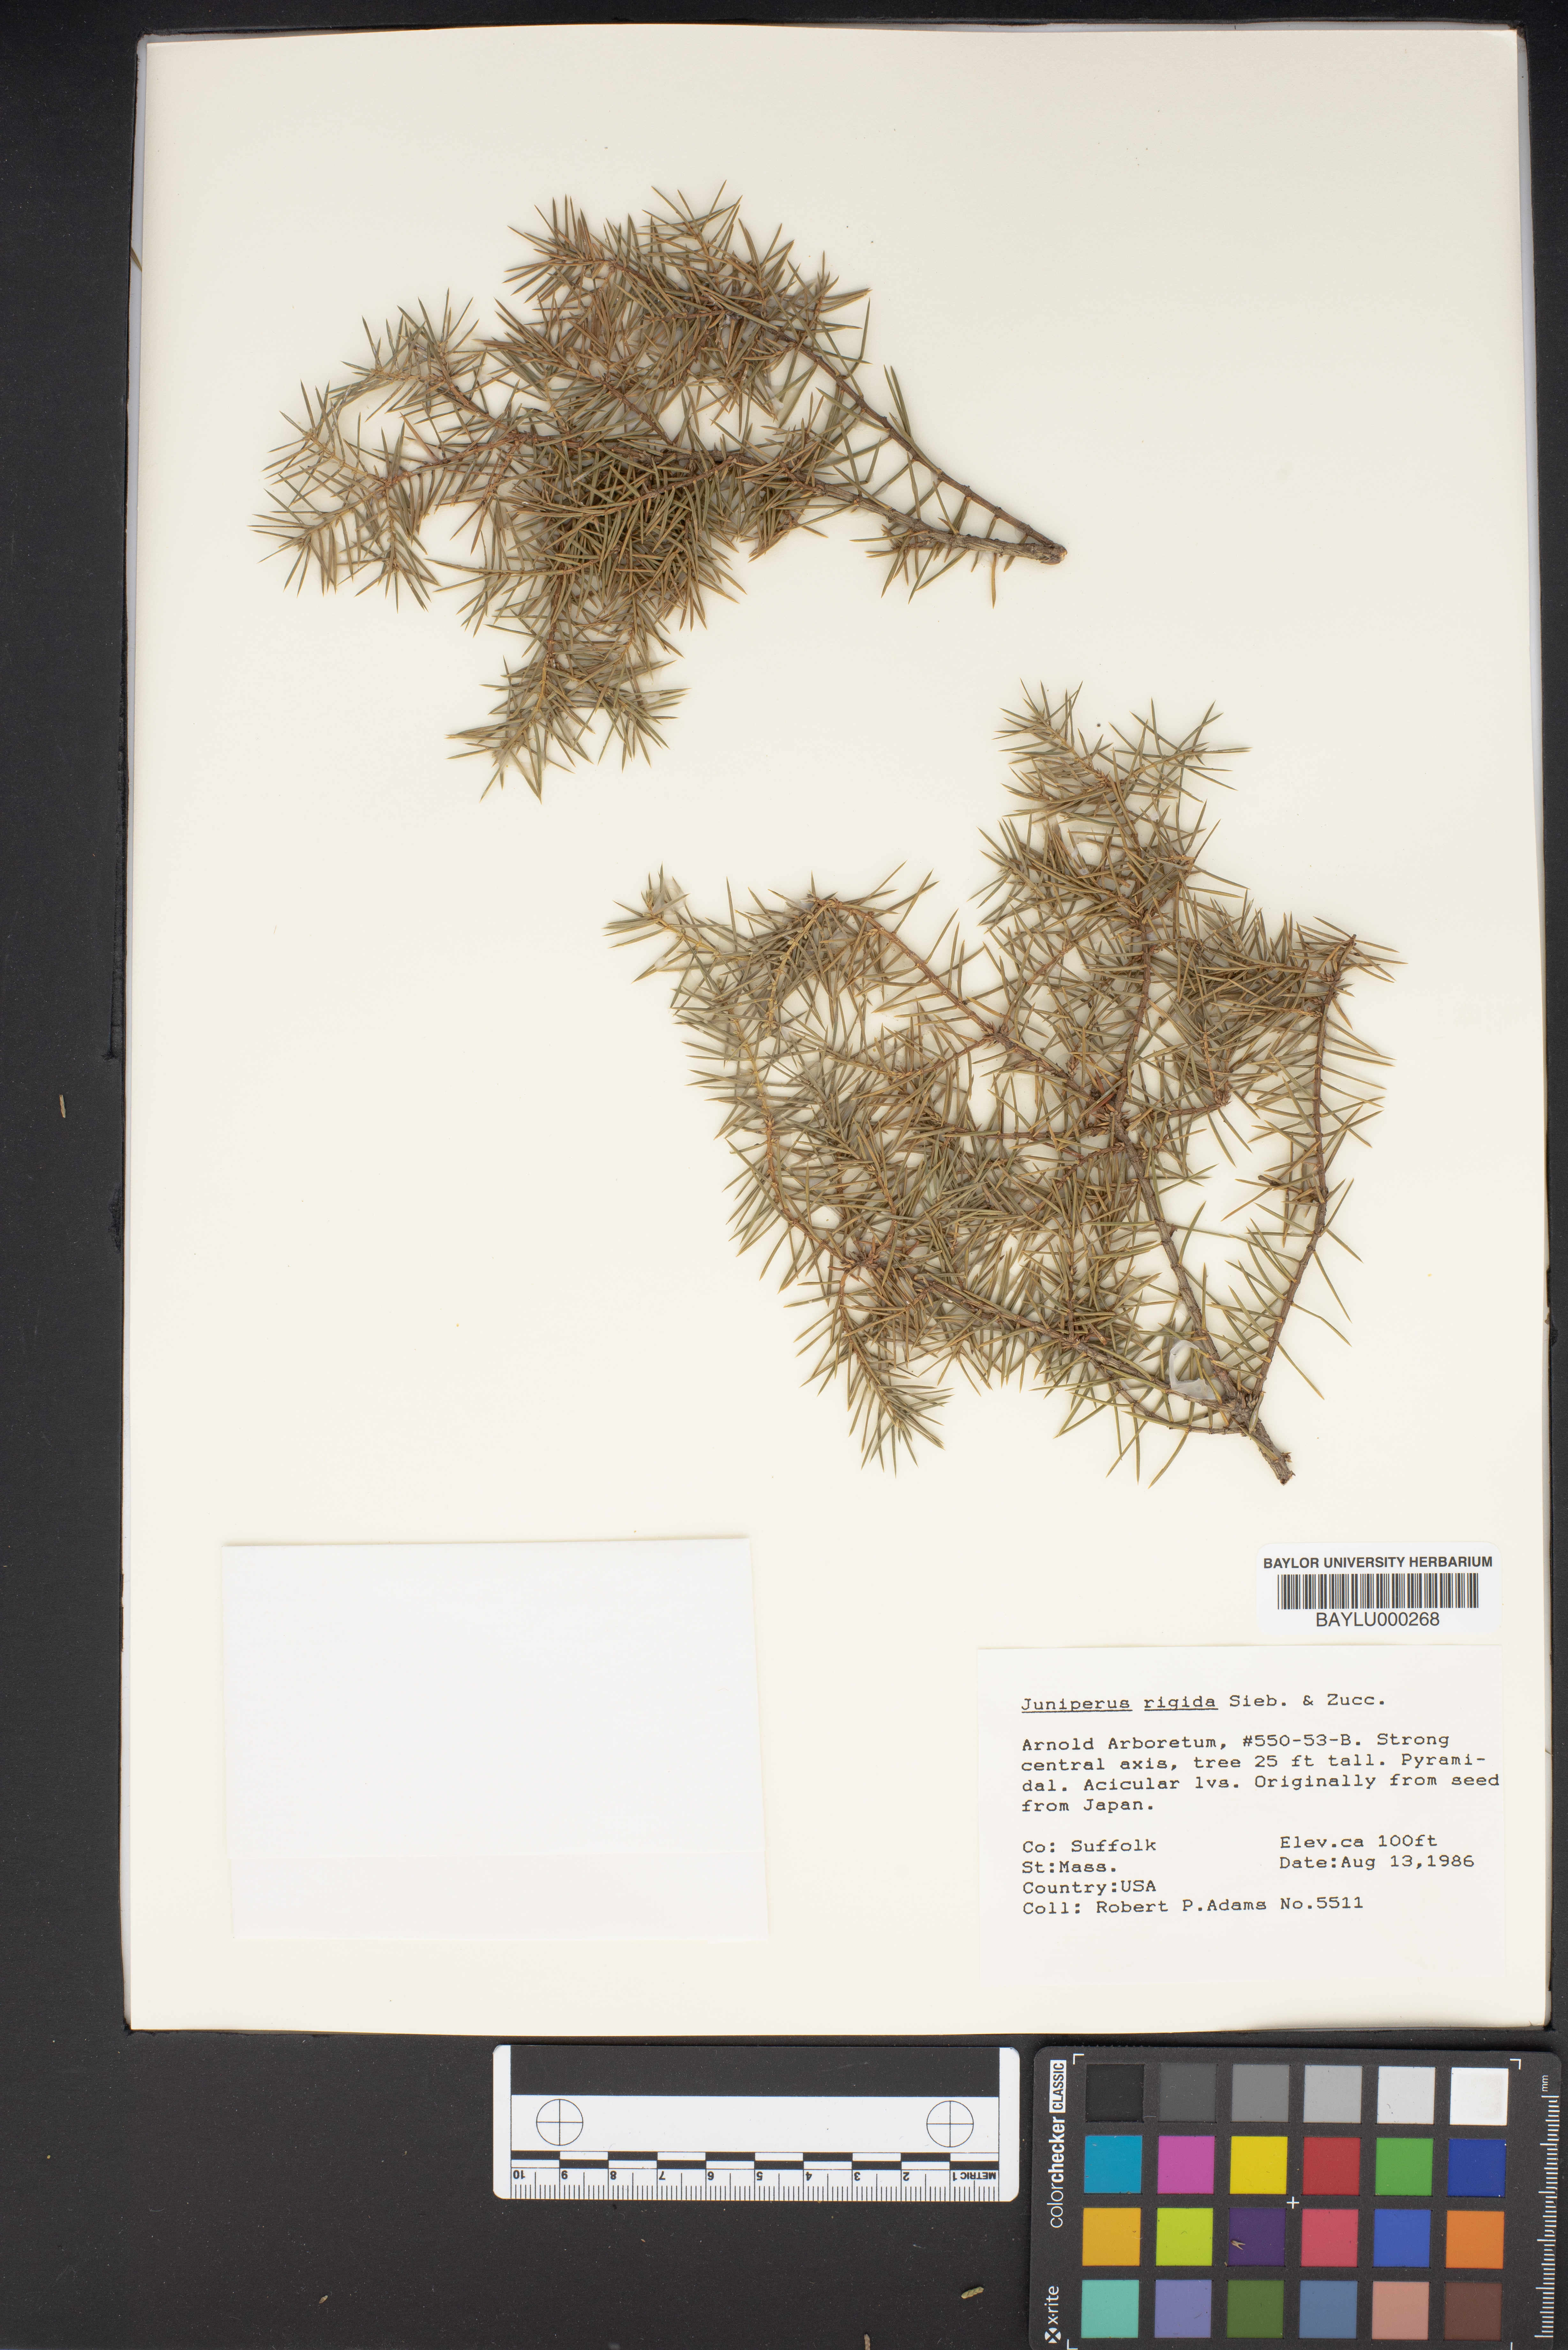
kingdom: Plantae
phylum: Tracheophyta
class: Pinopsida
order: Pinales
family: Cupressaceae
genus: Juniperus
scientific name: Juniperus rigida
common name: Needle juniper
